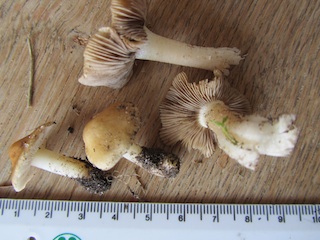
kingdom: Fungi
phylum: Basidiomycota
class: Agaricomycetes
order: Agaricales
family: Inocybaceae
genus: Inocybe
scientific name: Inocybe langei
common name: Langes trævlhat
